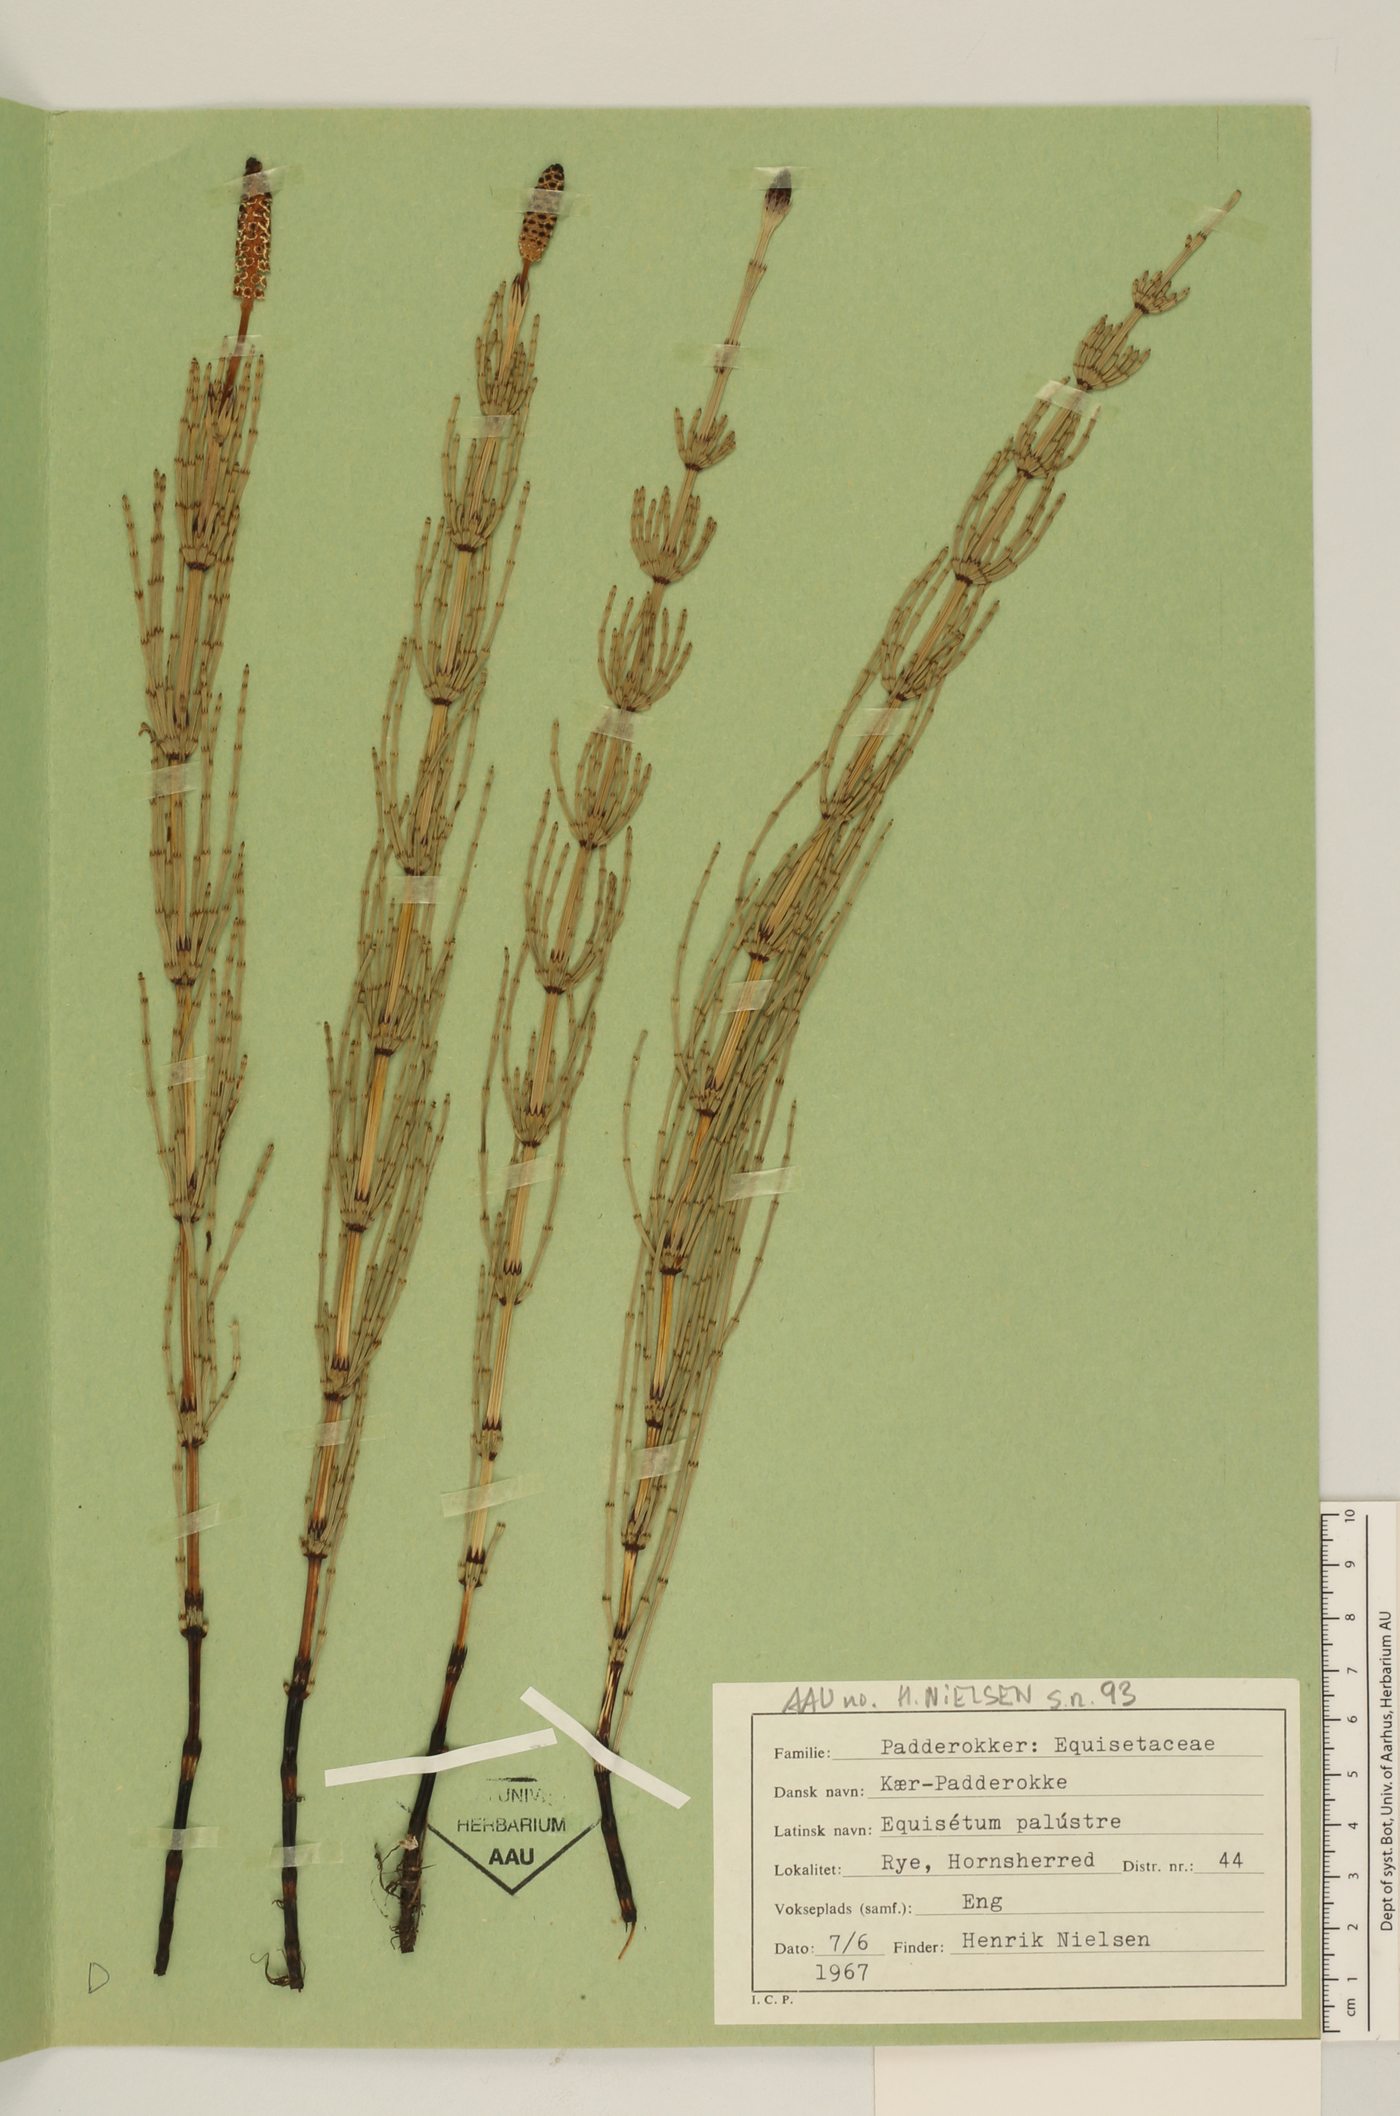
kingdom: Plantae
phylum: Tracheophyta
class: Polypodiopsida
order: Equisetales
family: Equisetaceae
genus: Equisetum
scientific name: Equisetum palustre
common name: Marsh horsetail
